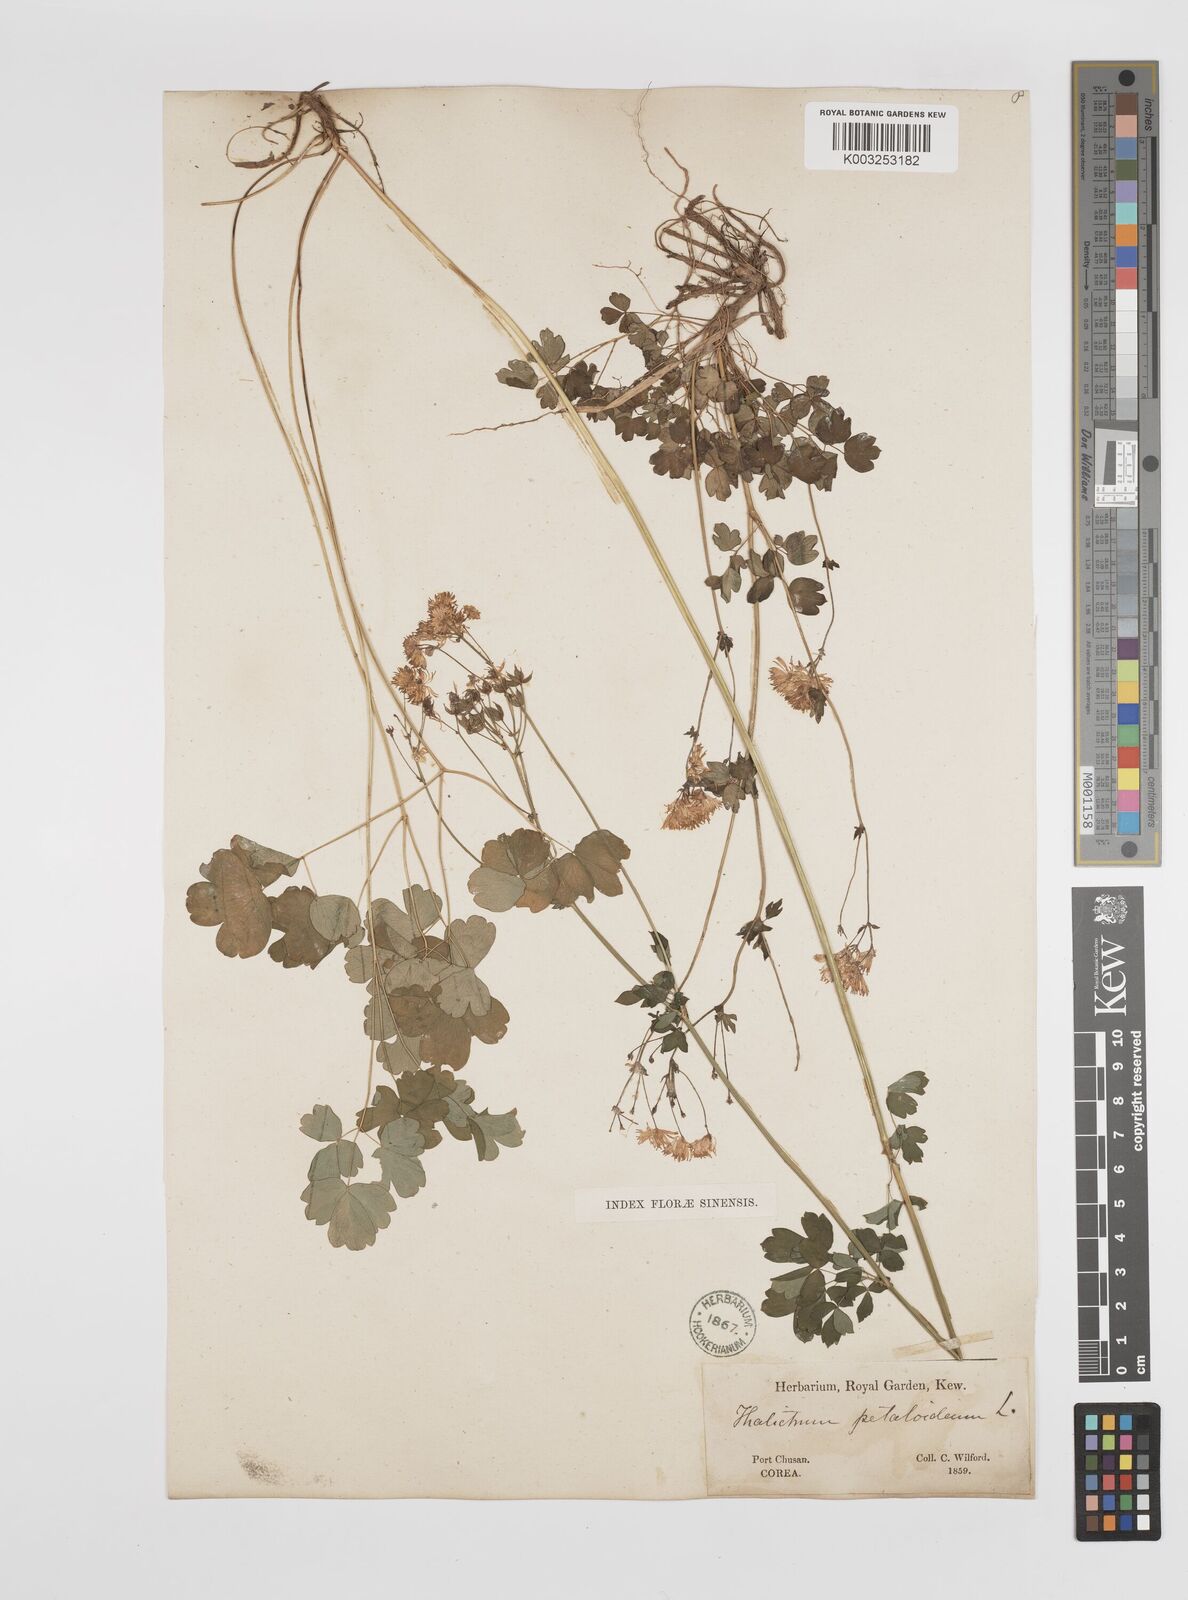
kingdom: Plantae
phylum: Tracheophyta
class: Magnoliopsida
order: Ranunculales
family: Ranunculaceae
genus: Thalictrum
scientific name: Thalictrum petaloideum
